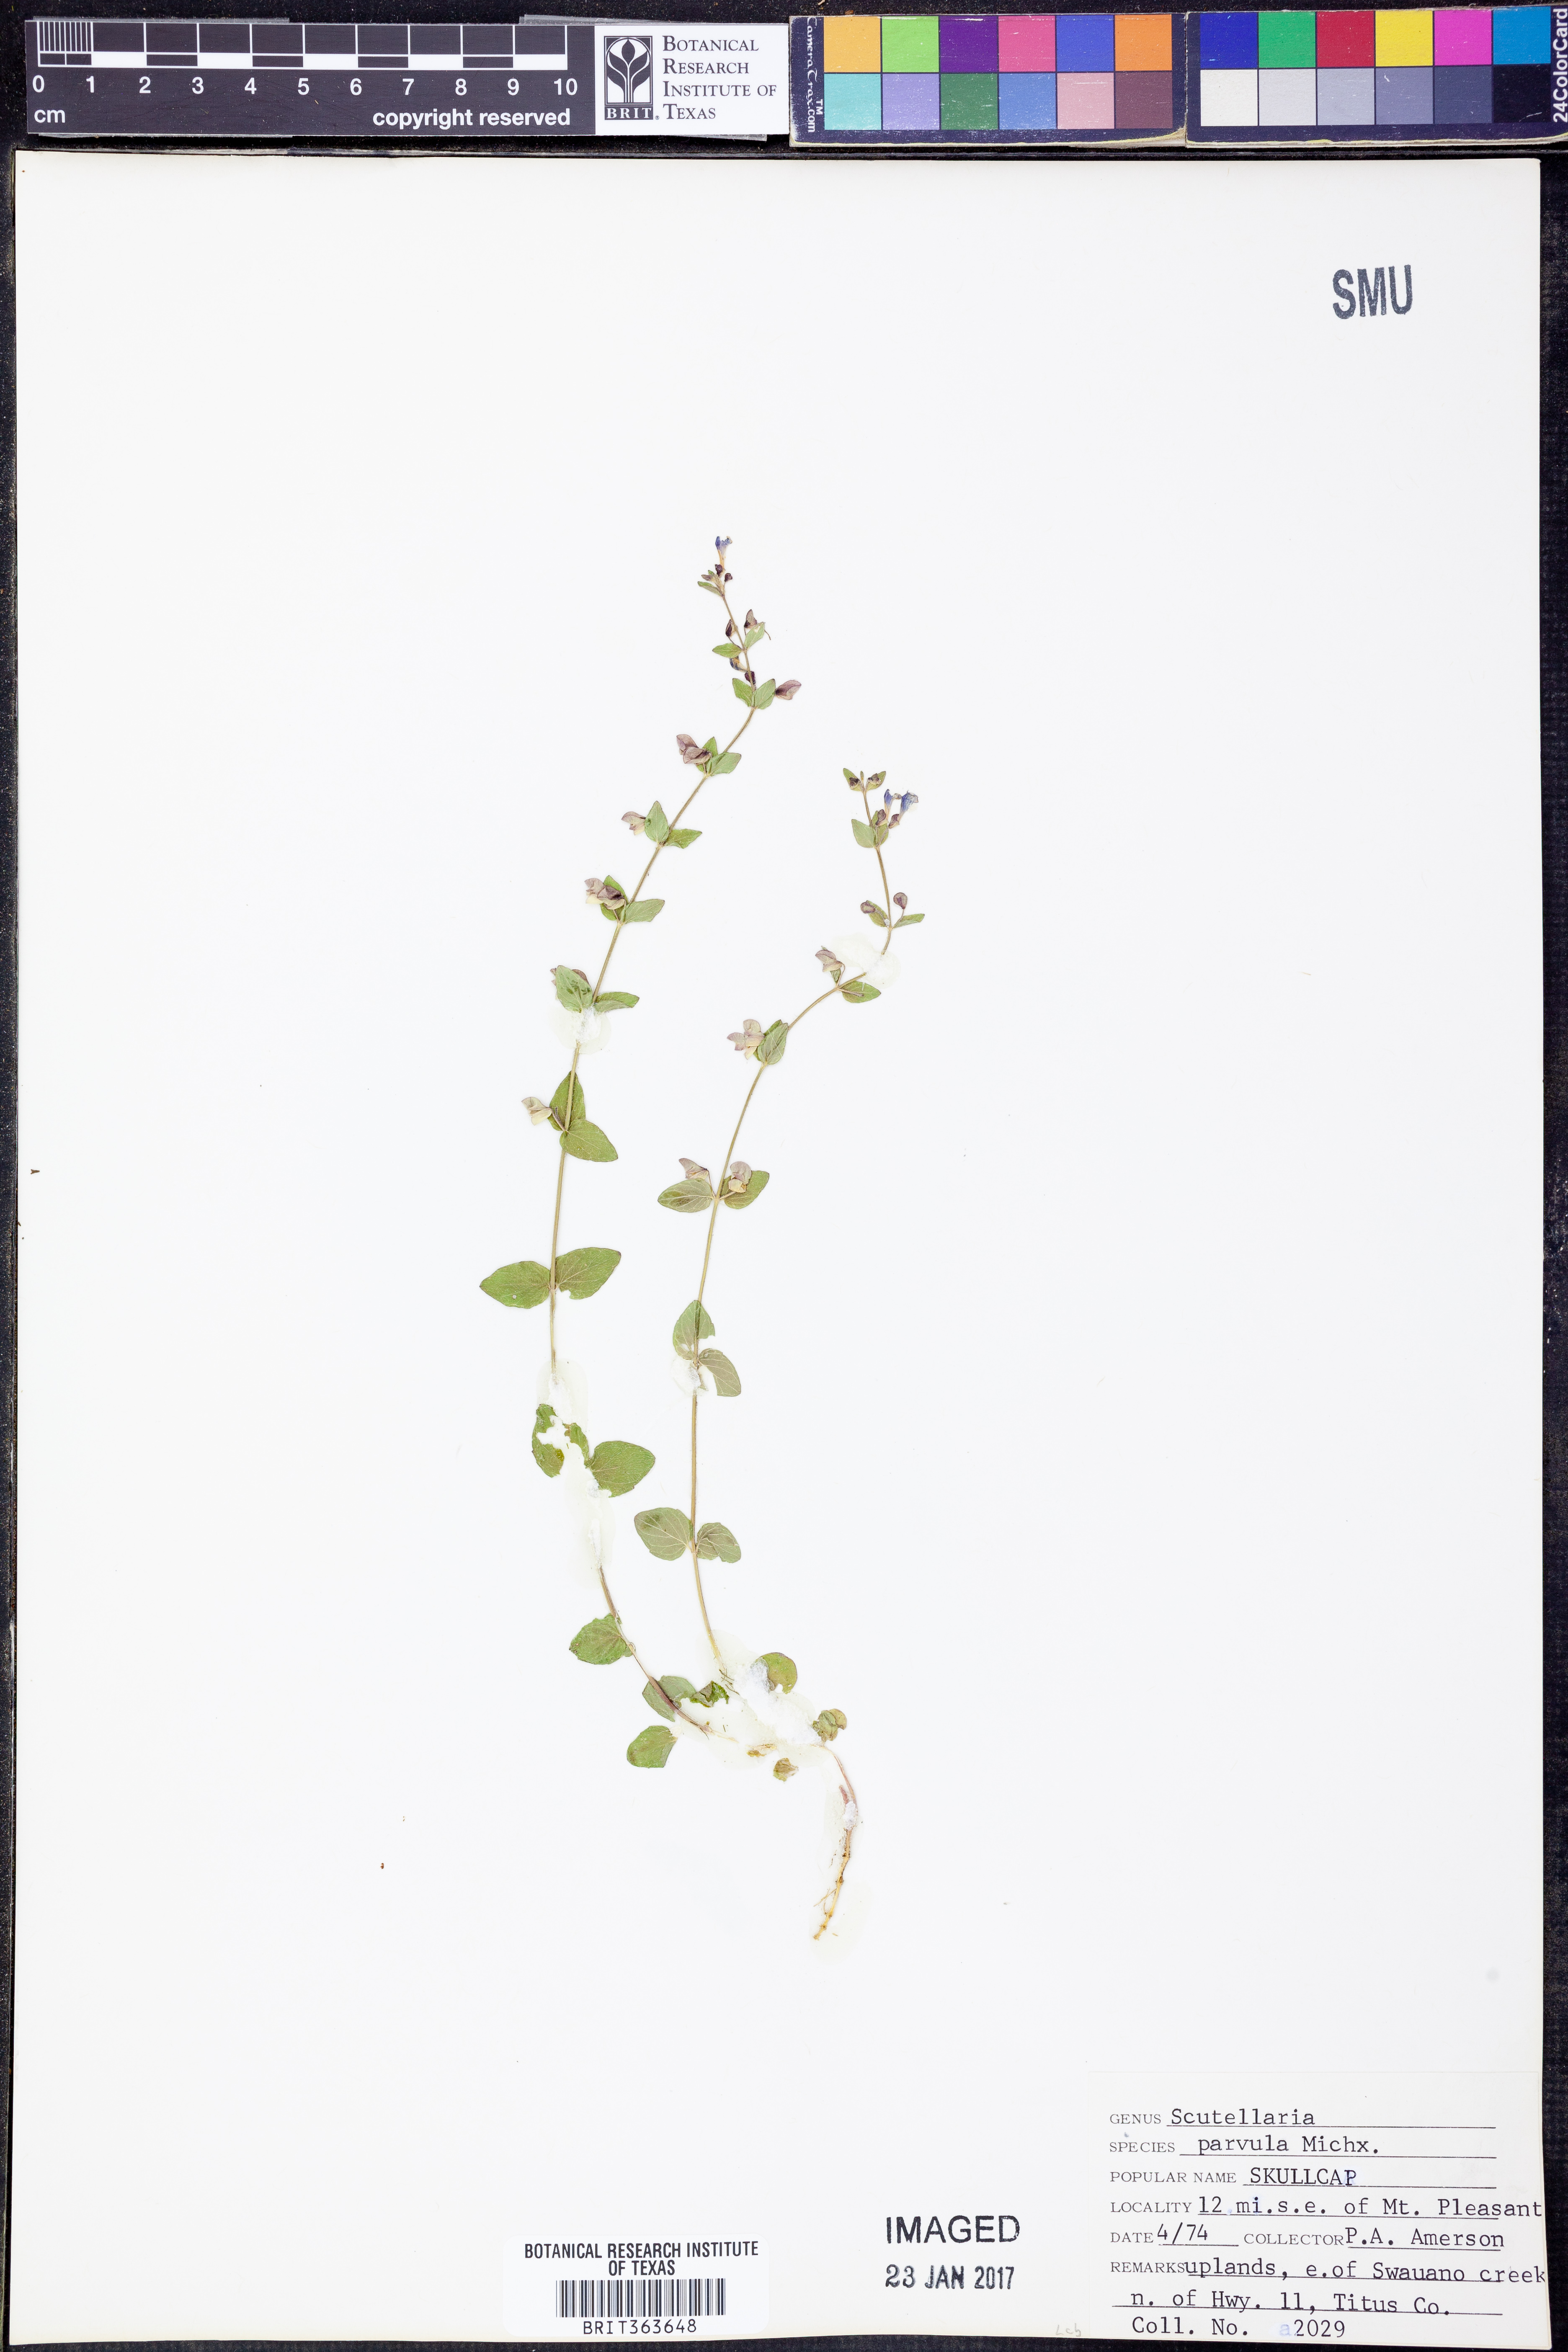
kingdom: Plantae
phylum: Tracheophyta
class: Magnoliopsida
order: Lamiales
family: Lamiaceae
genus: Scutellaria
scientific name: Scutellaria parvula
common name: Little scullcap
